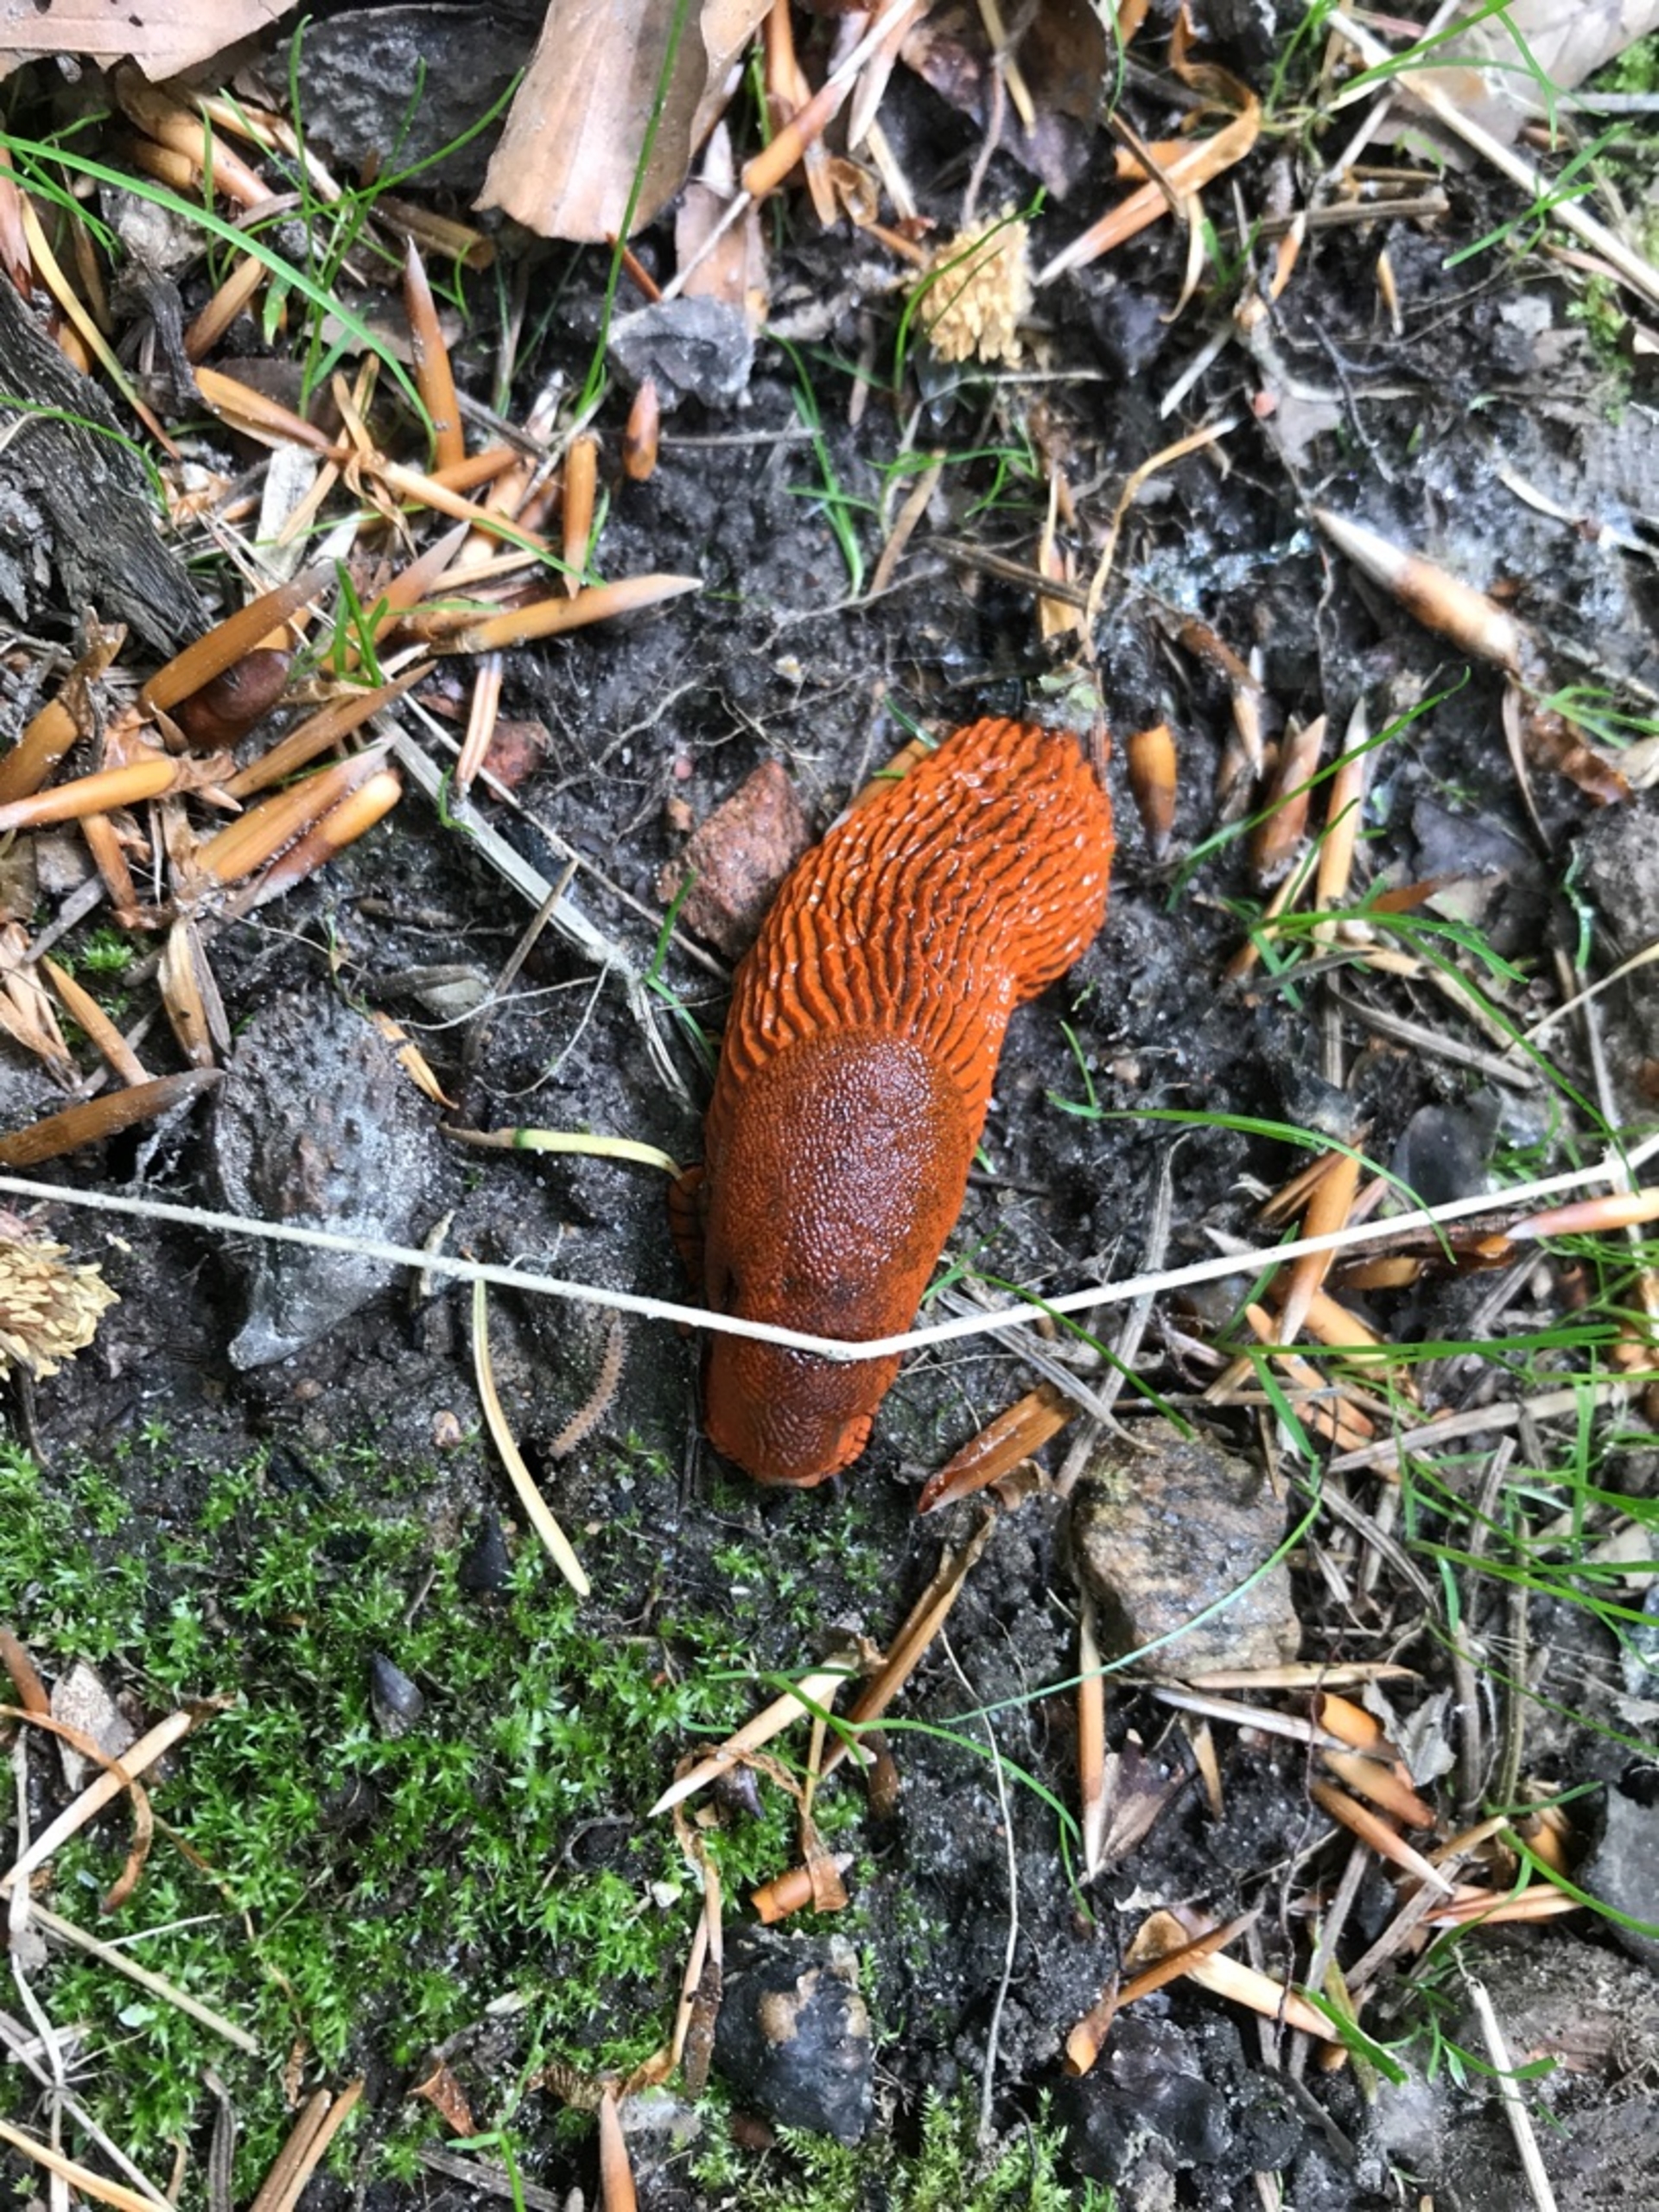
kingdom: Animalia
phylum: Mollusca
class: Gastropoda
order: Stylommatophora
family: Arionidae
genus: Arion
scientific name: Arion rufus
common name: Rød skovsnegl
